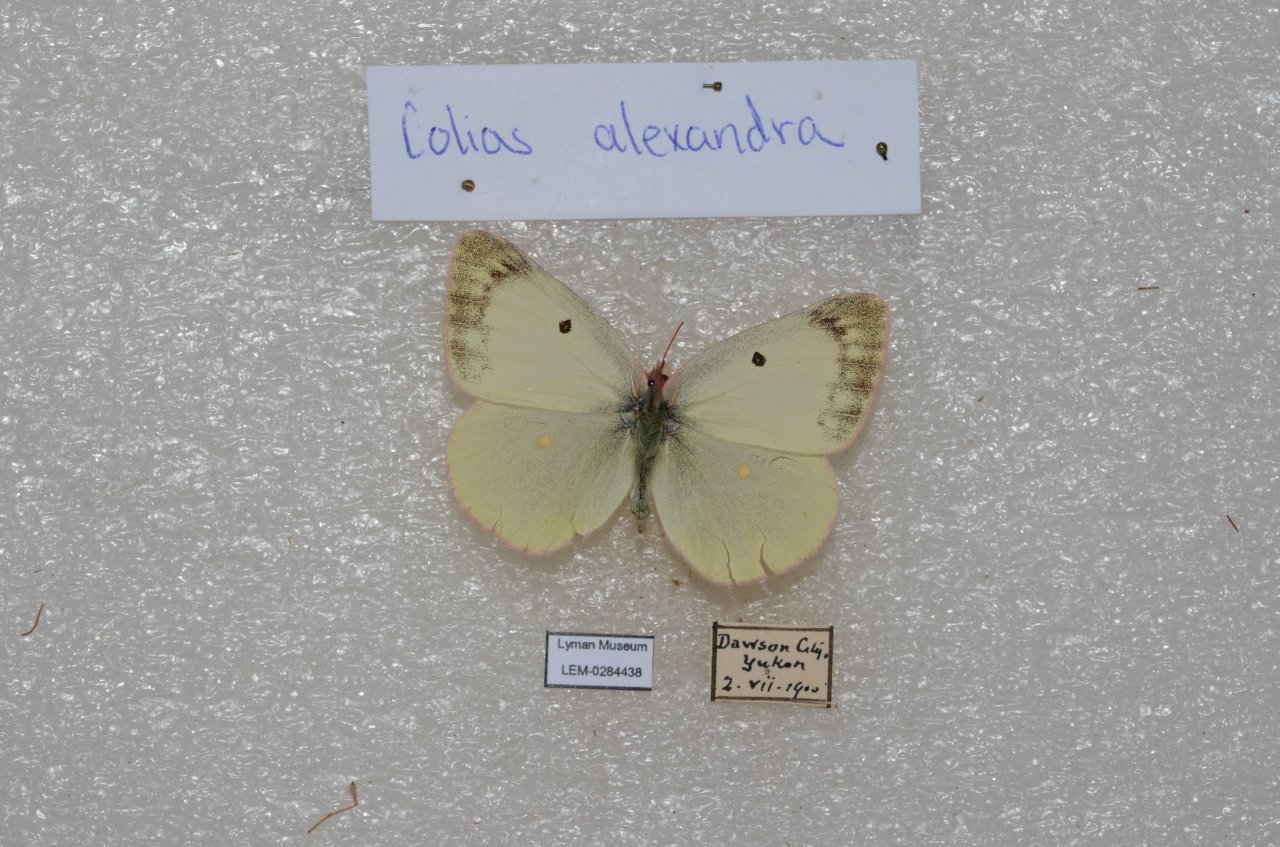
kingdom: Animalia
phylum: Arthropoda
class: Insecta
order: Lepidoptera
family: Pieridae
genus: Colias
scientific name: Colias
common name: Clouded Yellows
